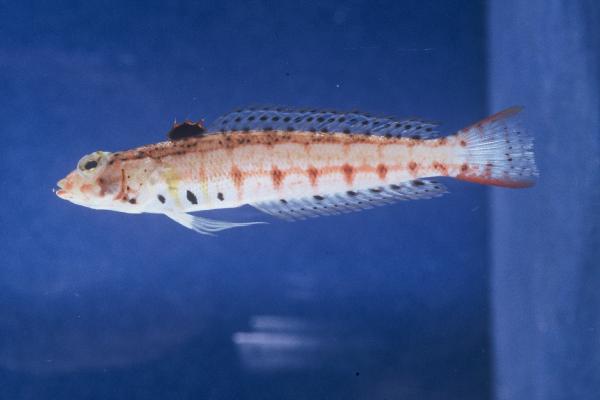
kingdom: Animalia
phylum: Chordata
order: Perciformes
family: Pinguipedidae
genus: Parapercis
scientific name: Parapercis punctulata
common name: Spotted sandperch
